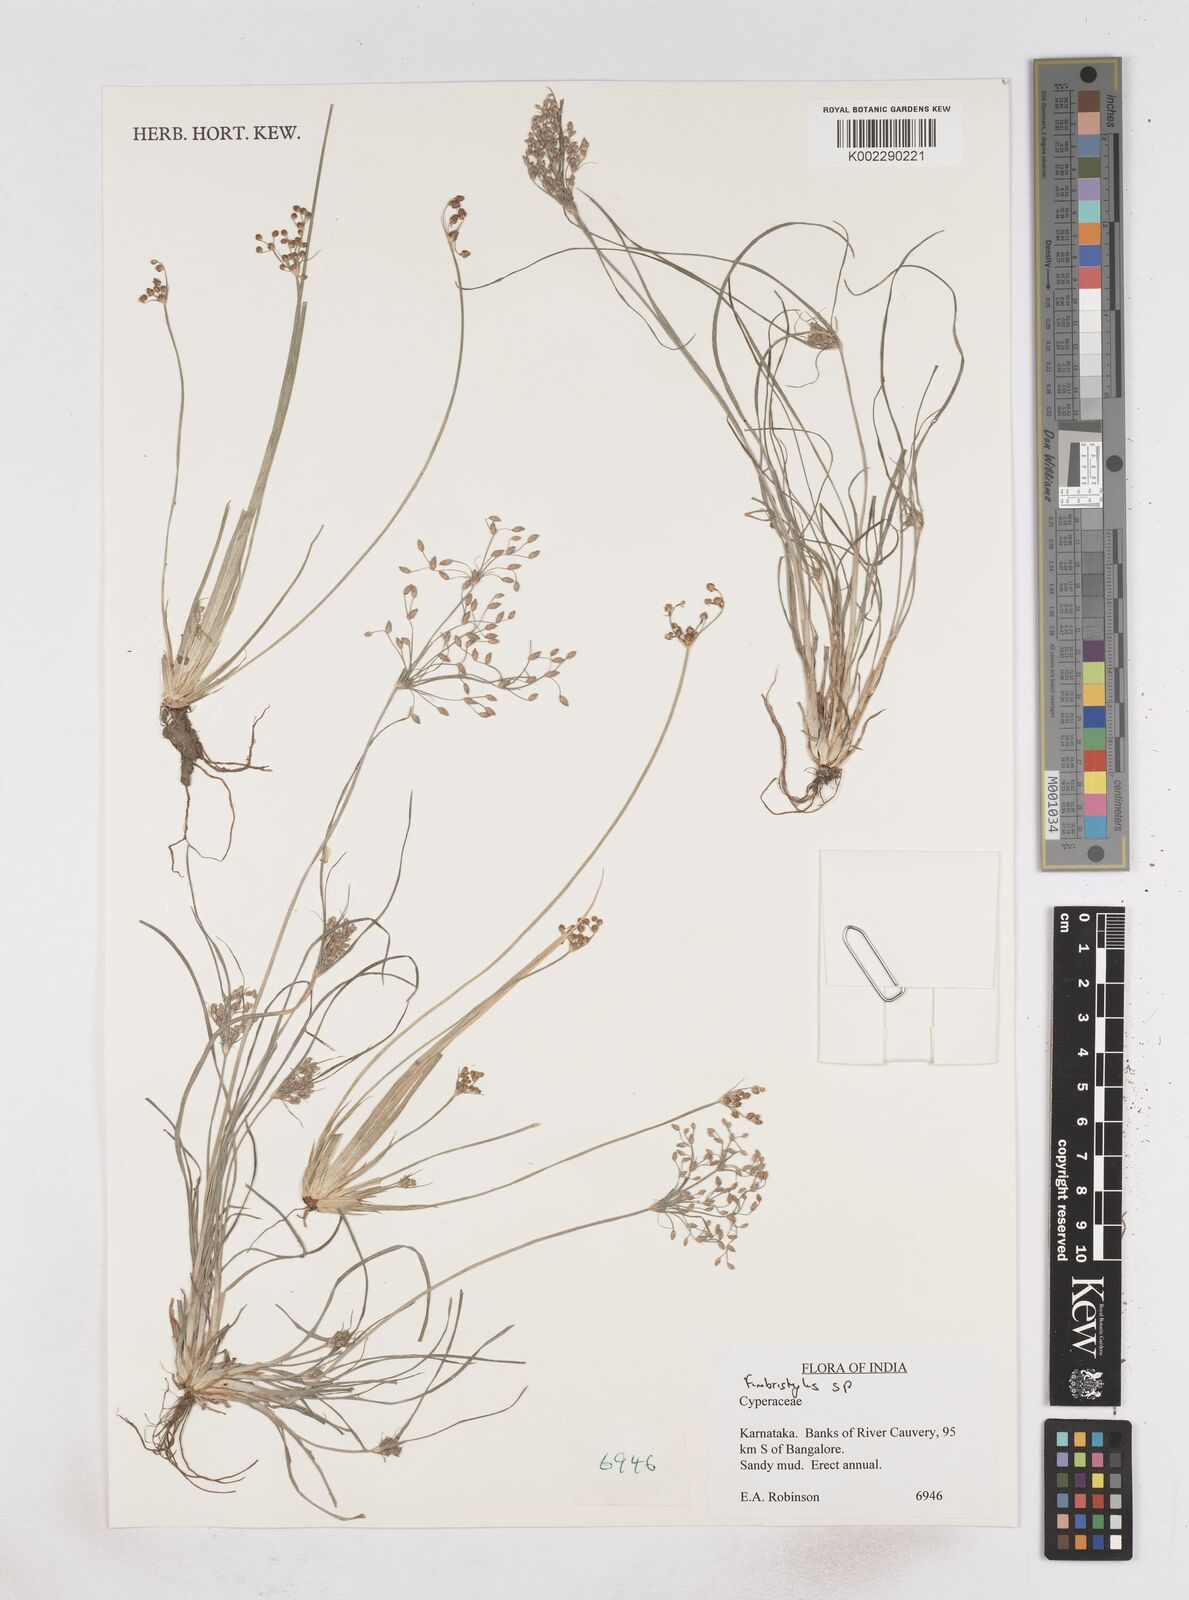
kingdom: Plantae
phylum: Tracheophyta
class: Liliopsida
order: Poales
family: Cyperaceae
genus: Fimbristylis
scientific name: Fimbristylis
